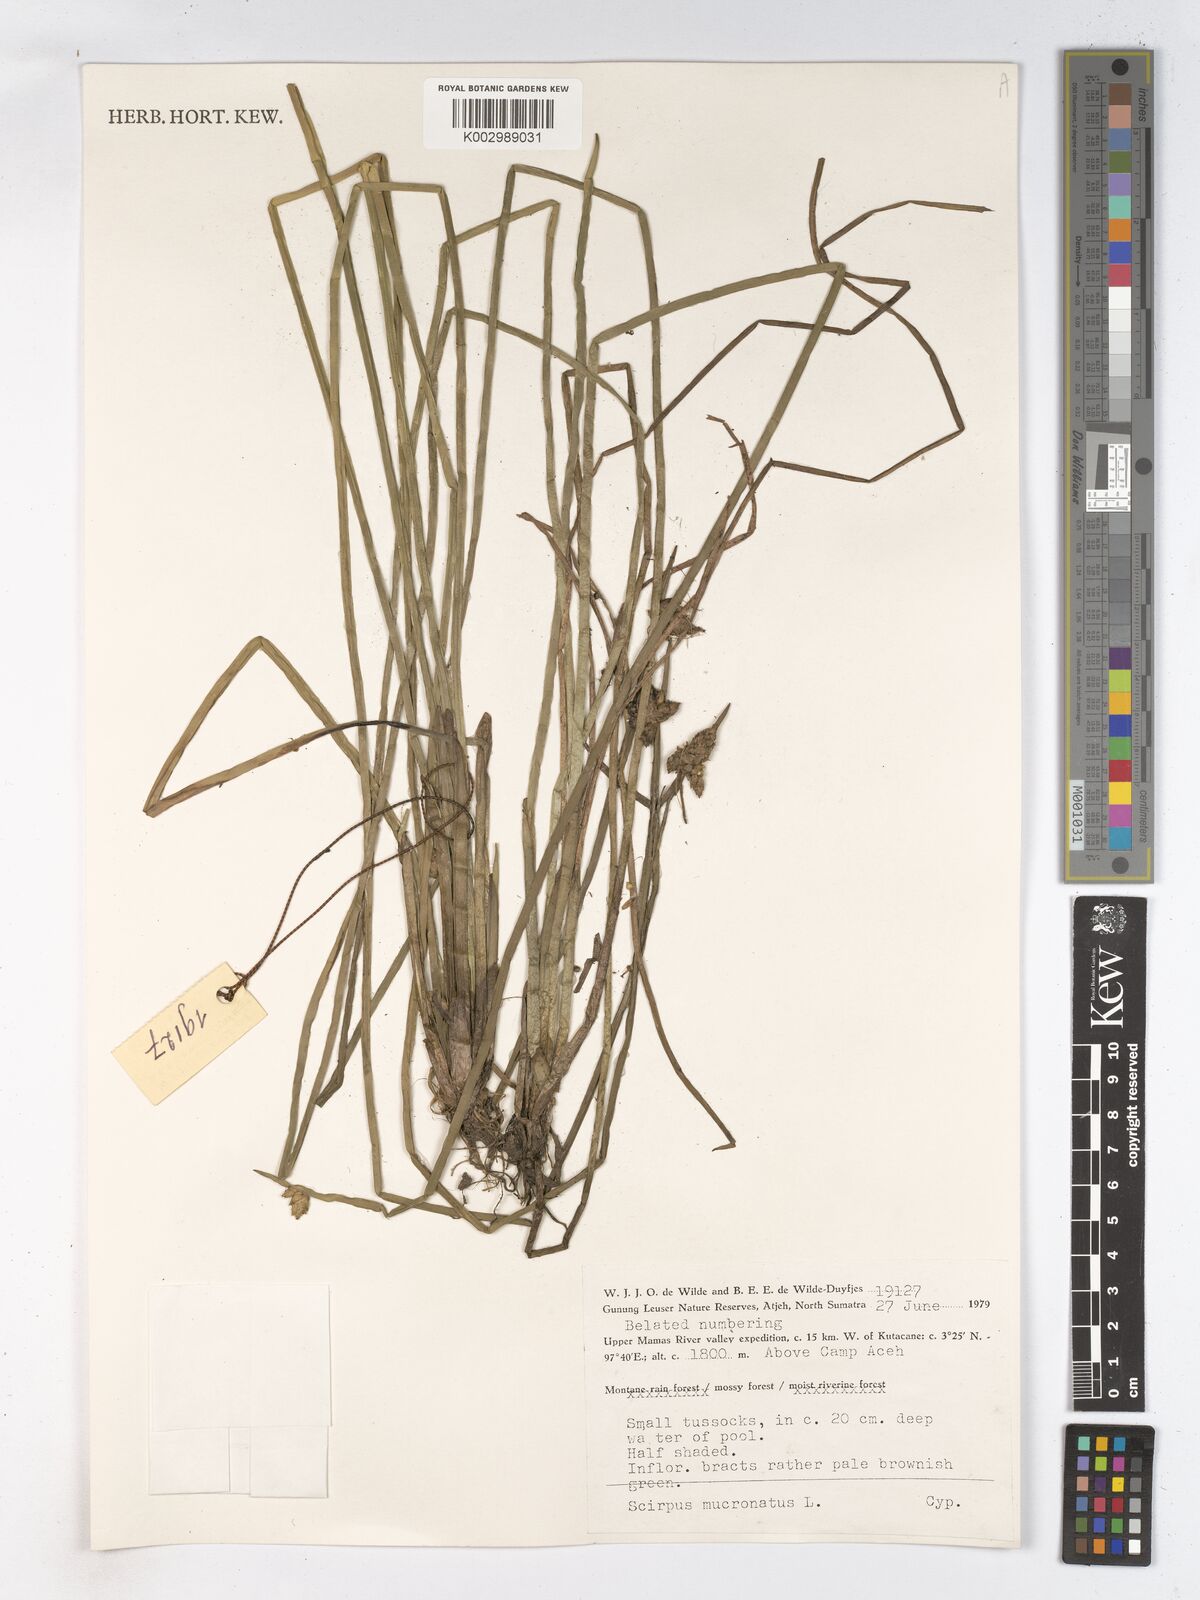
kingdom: Plantae
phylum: Tracheophyta
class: Liliopsida
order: Poales
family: Cyperaceae
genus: Schoenoplectiella
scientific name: Schoenoplectiella mucronata
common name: Bog bulrush
